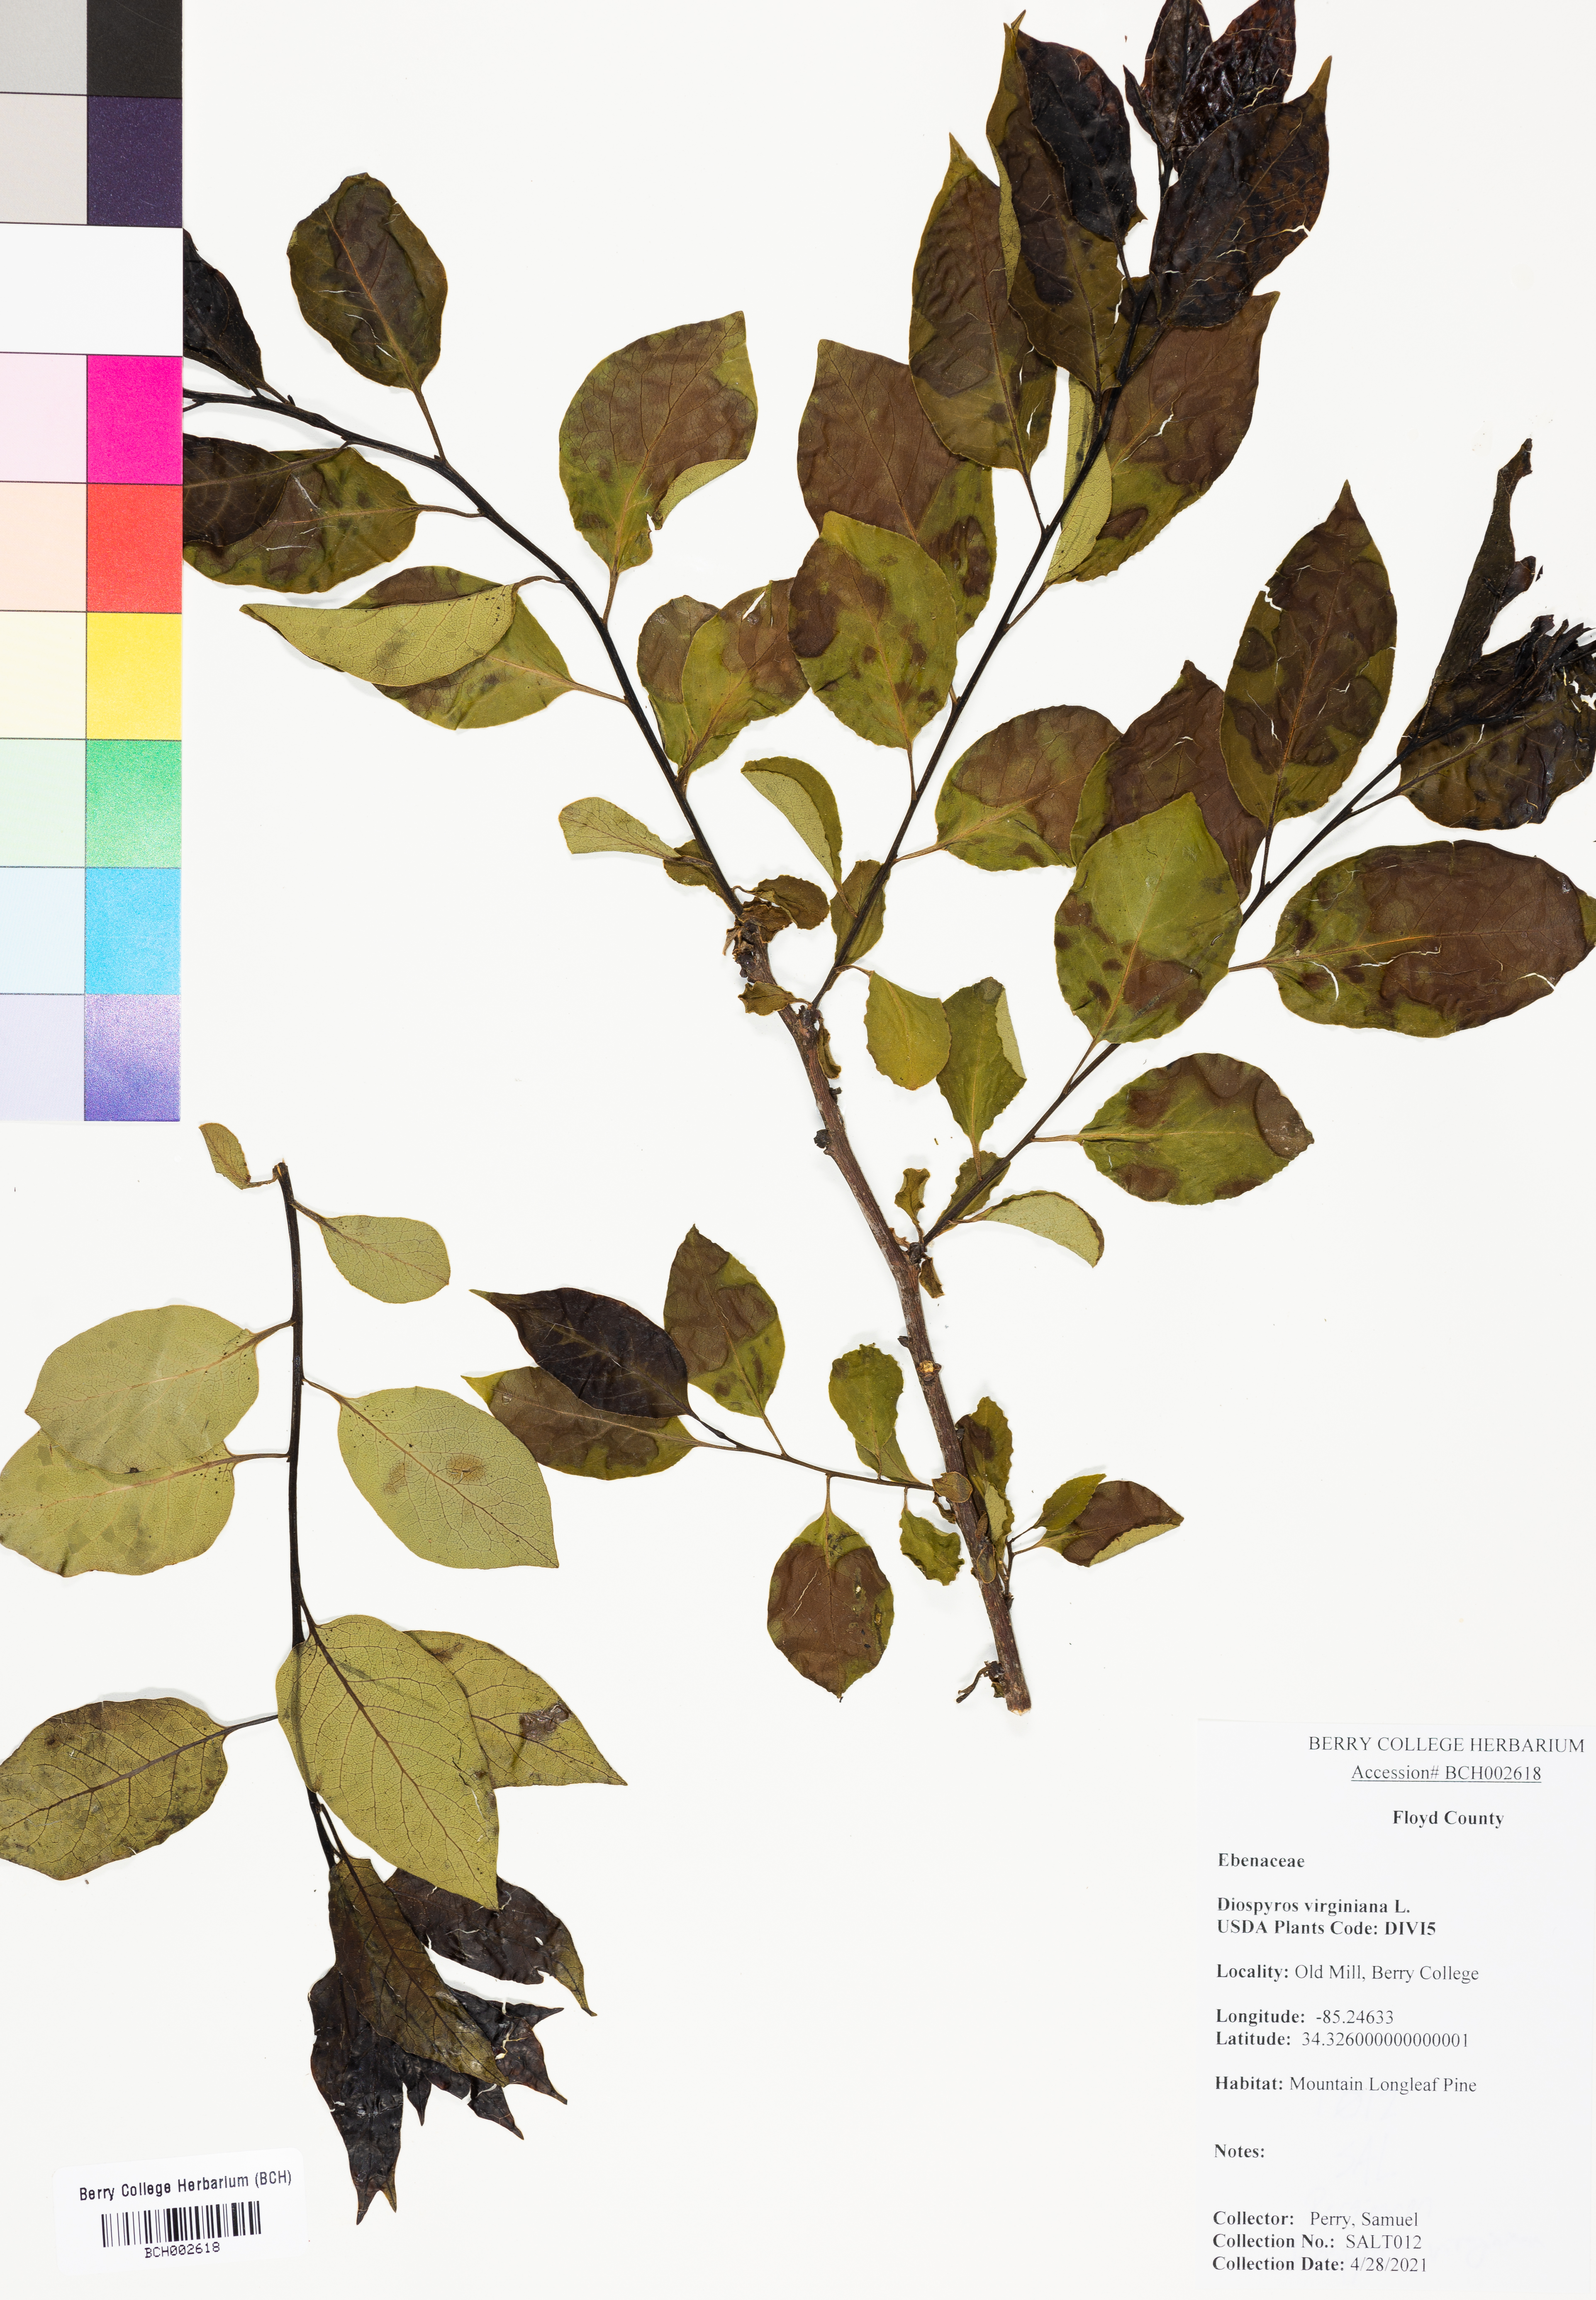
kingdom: Plantae
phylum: Tracheophyta
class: Magnoliopsida
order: Ericales
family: Ebenaceae
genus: Diospyros
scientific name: Diospyros virginiana
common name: Persimmon
